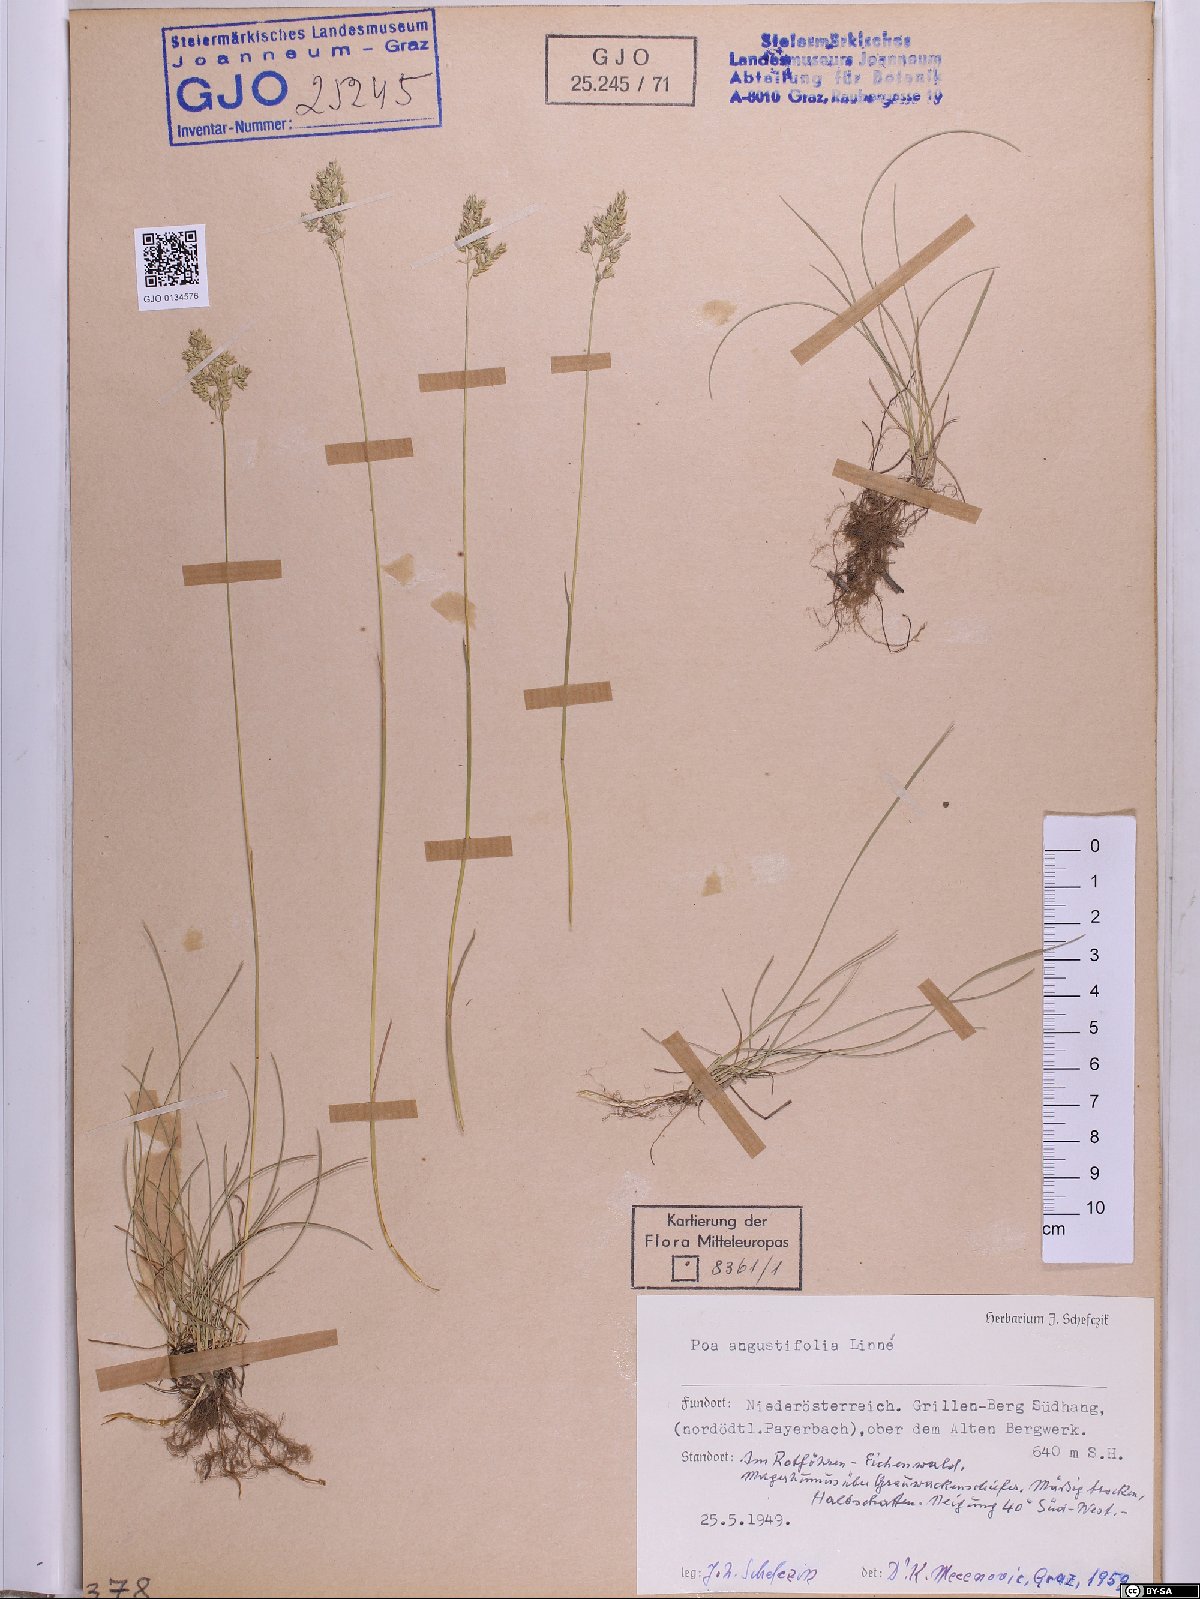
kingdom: Plantae
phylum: Tracheophyta
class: Liliopsida
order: Poales
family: Poaceae
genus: Poa
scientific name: Poa angustifolia
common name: Narrow-leaved meadow-grass
